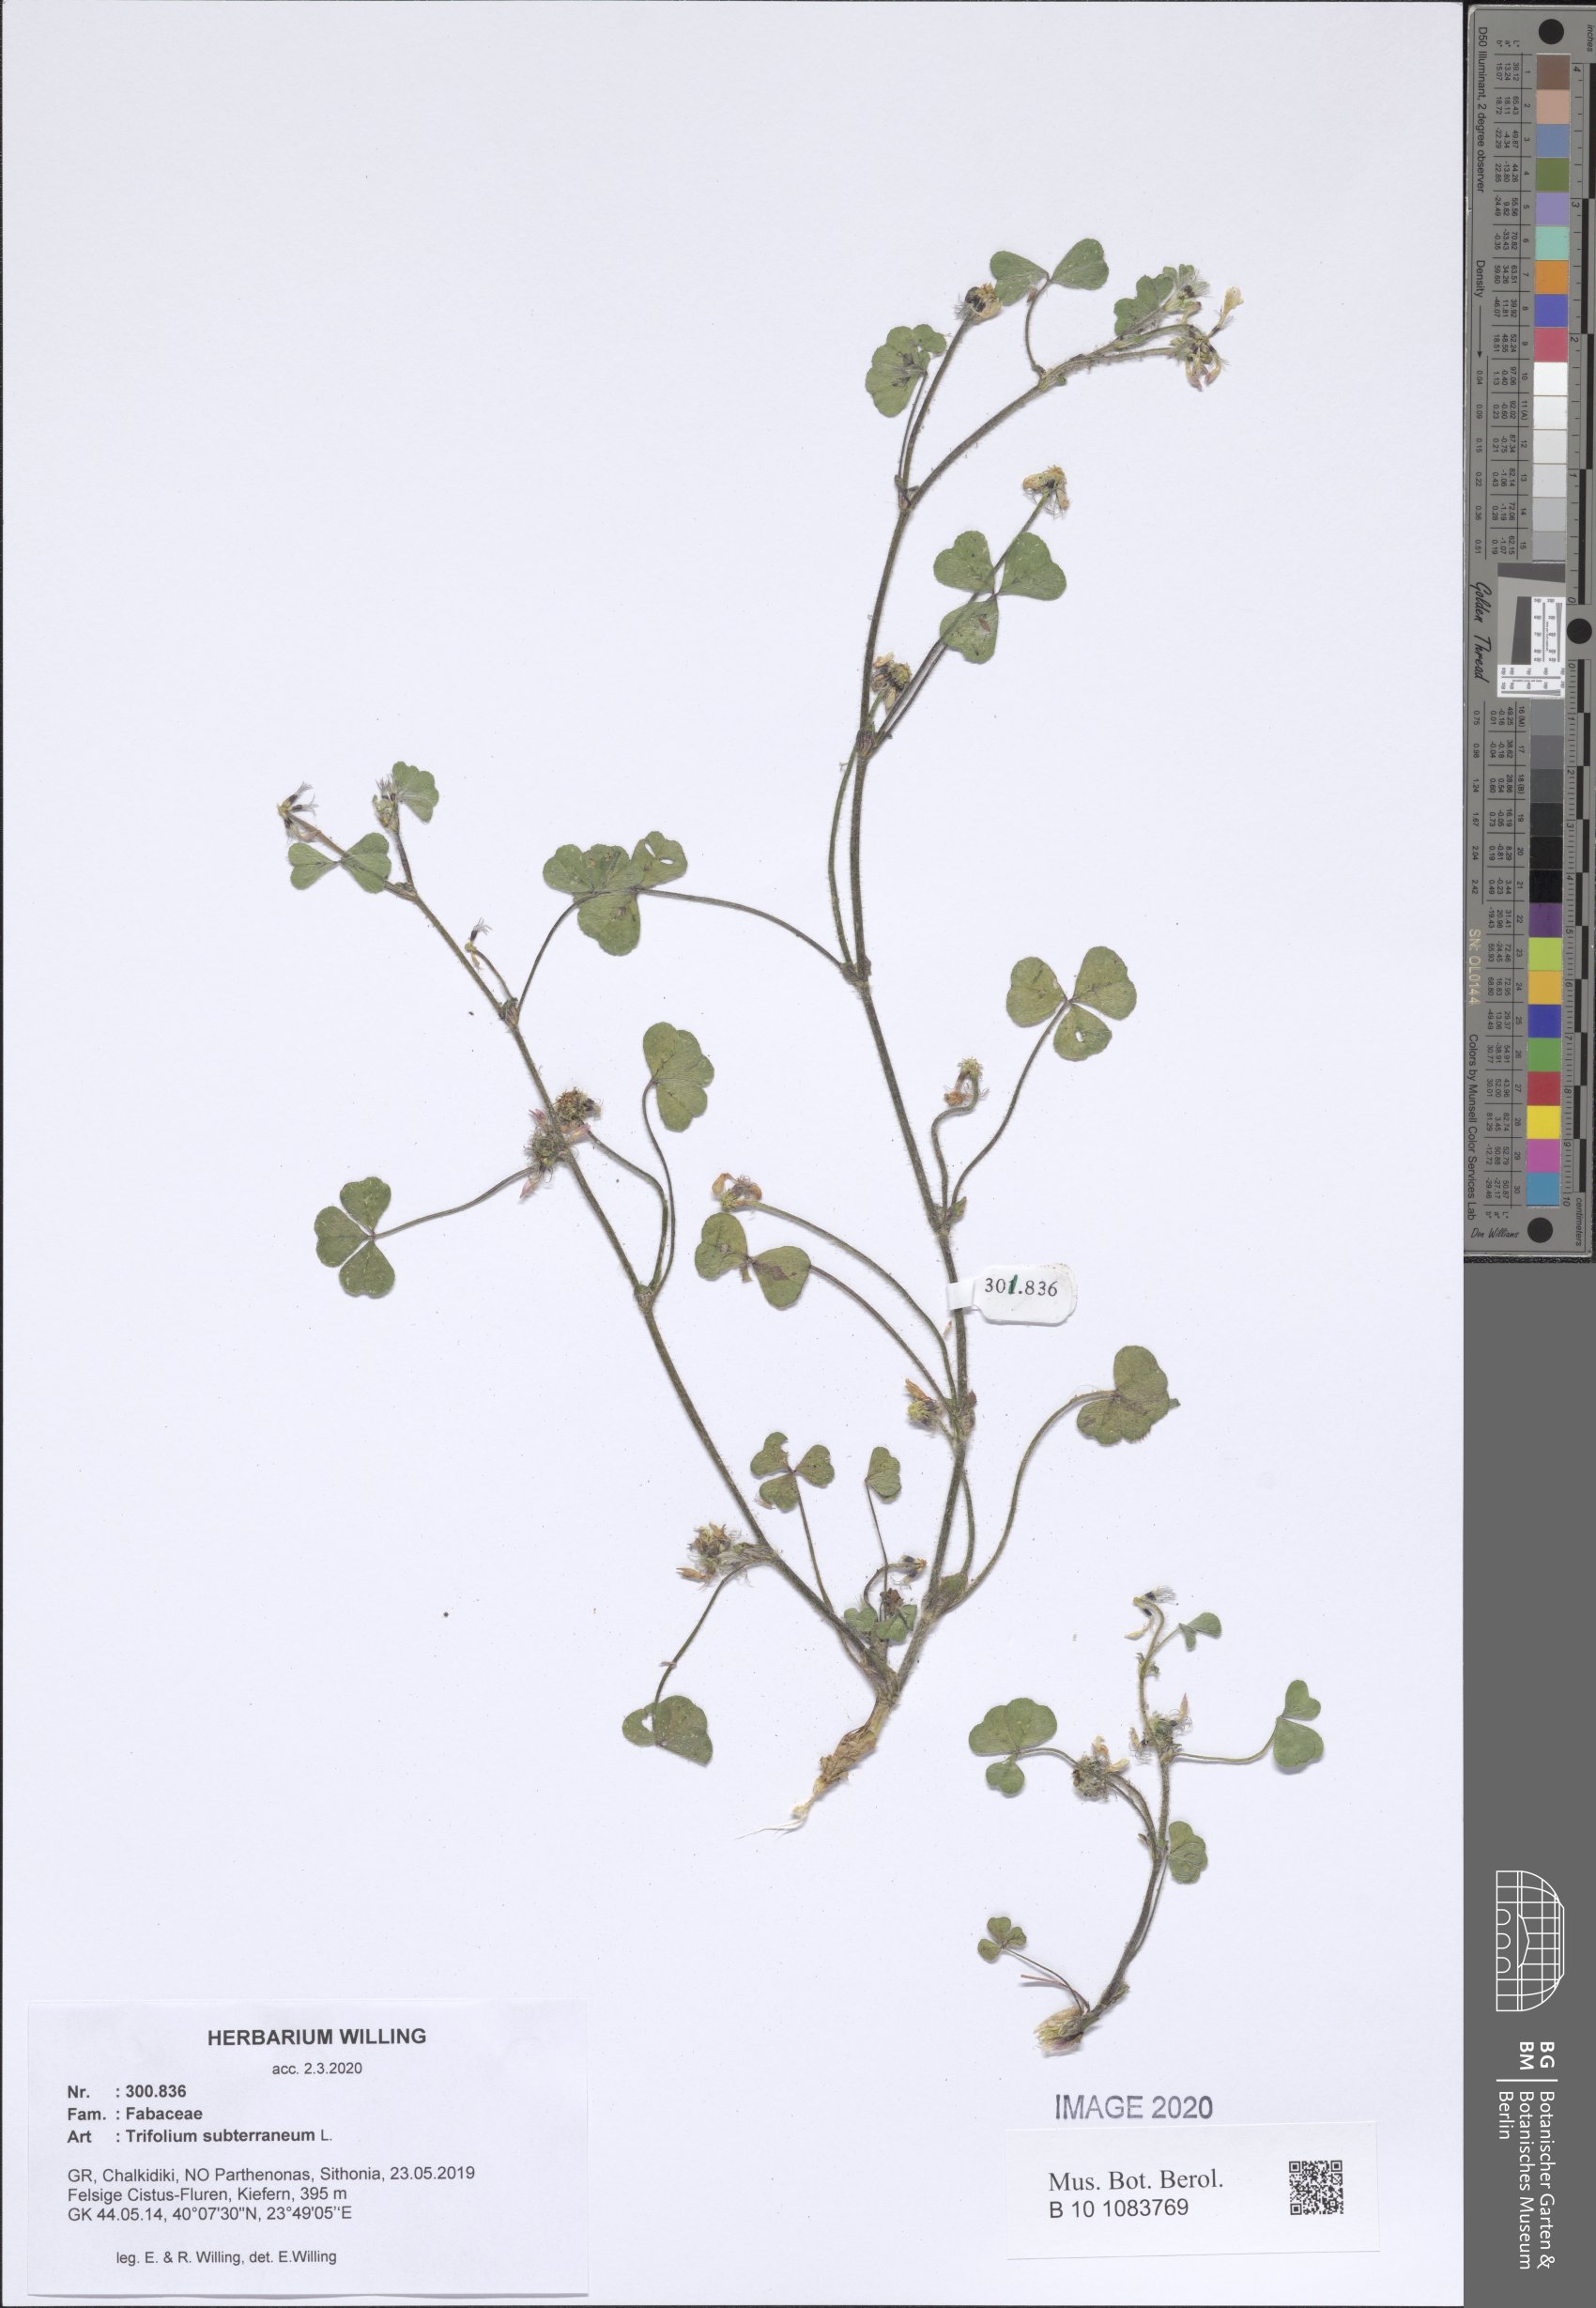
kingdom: Plantae
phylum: Tracheophyta
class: Magnoliopsida
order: Fabales
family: Fabaceae
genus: Trifolium
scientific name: Trifolium subterraneum
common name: Subterranean clover
